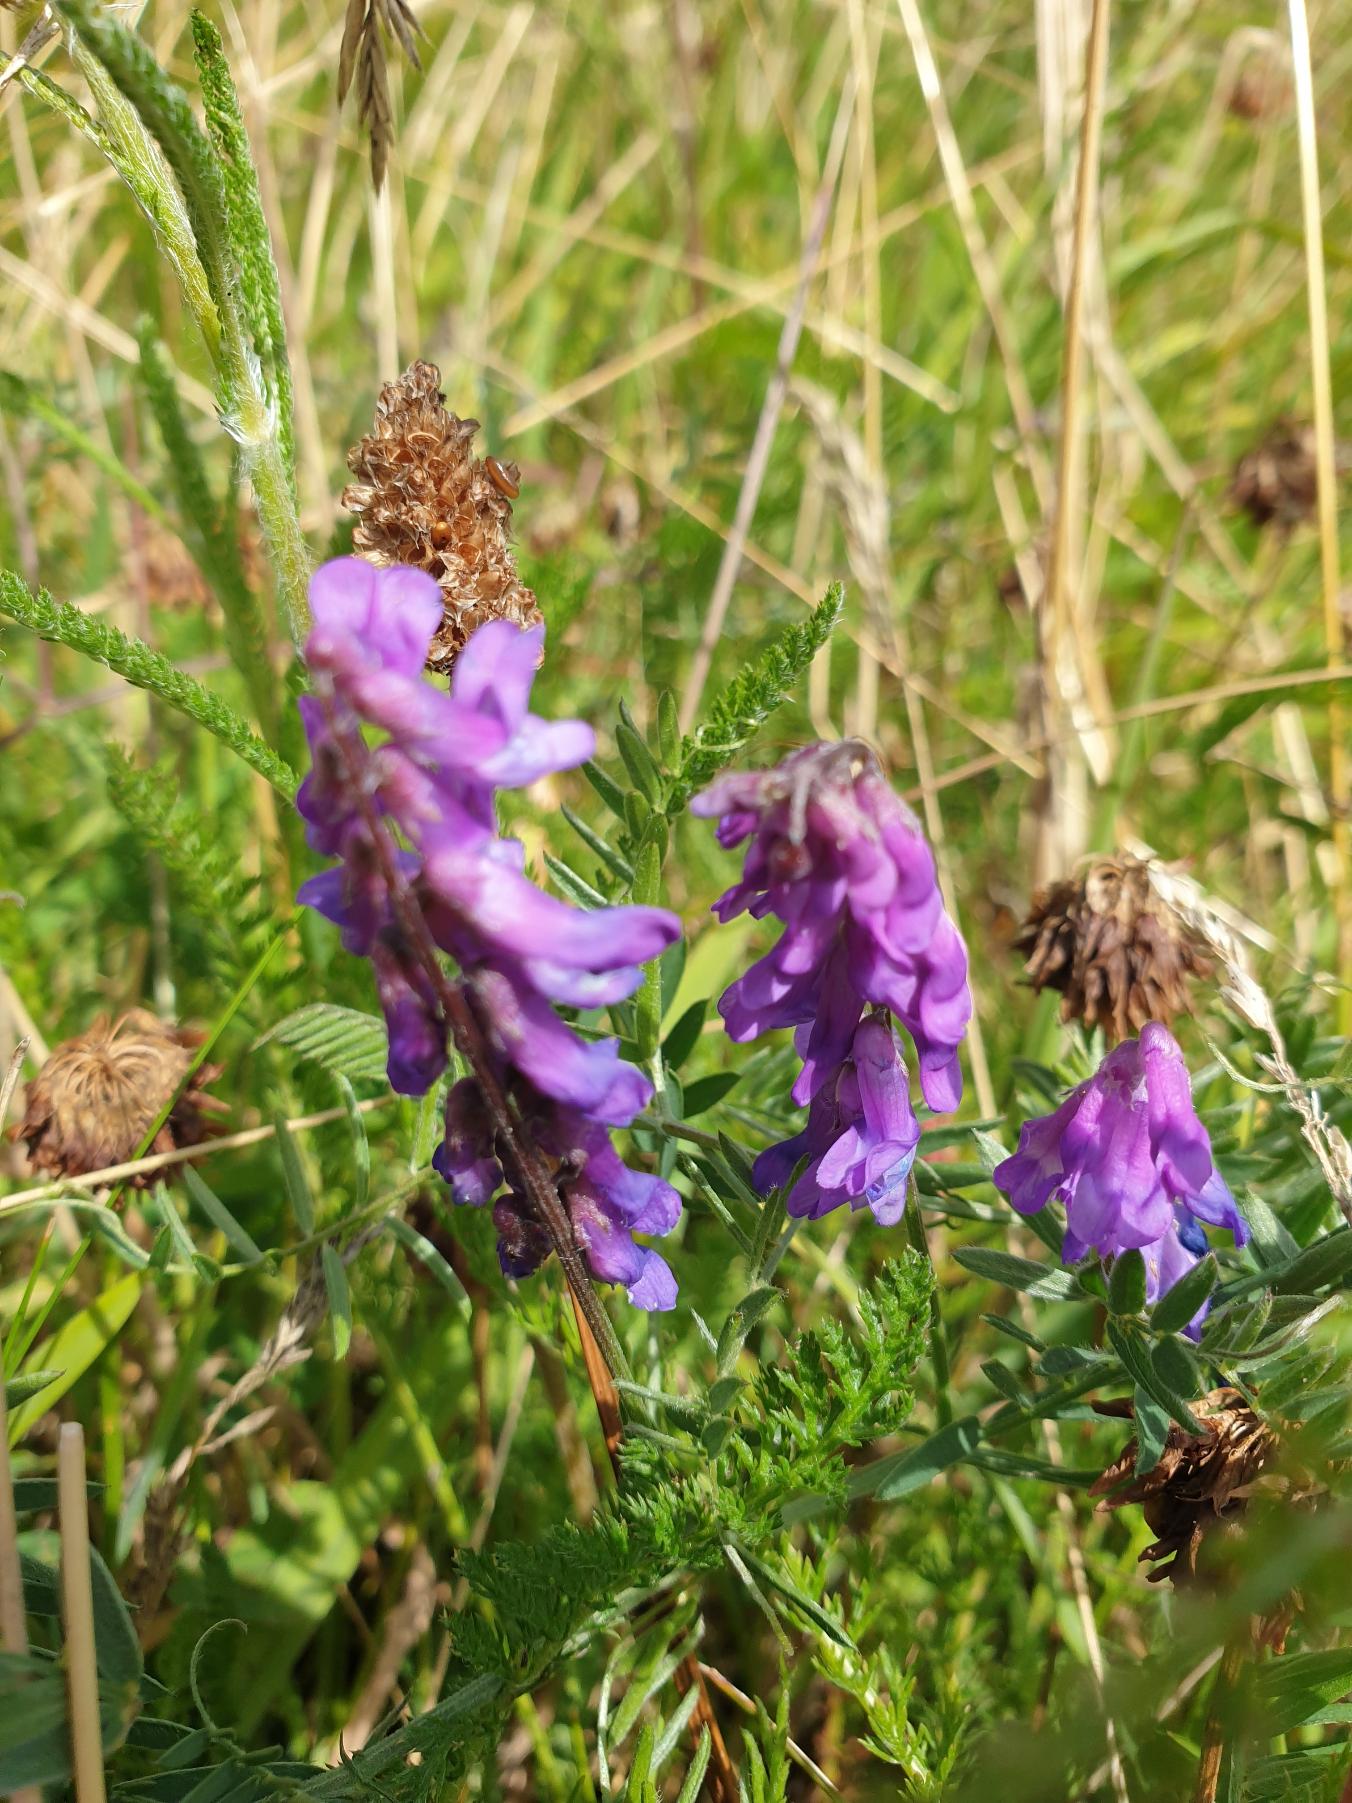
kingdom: Plantae
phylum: Tracheophyta
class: Magnoliopsida
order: Fabales
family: Fabaceae
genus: Vicia
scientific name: Vicia cracca
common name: Muse-vikke
